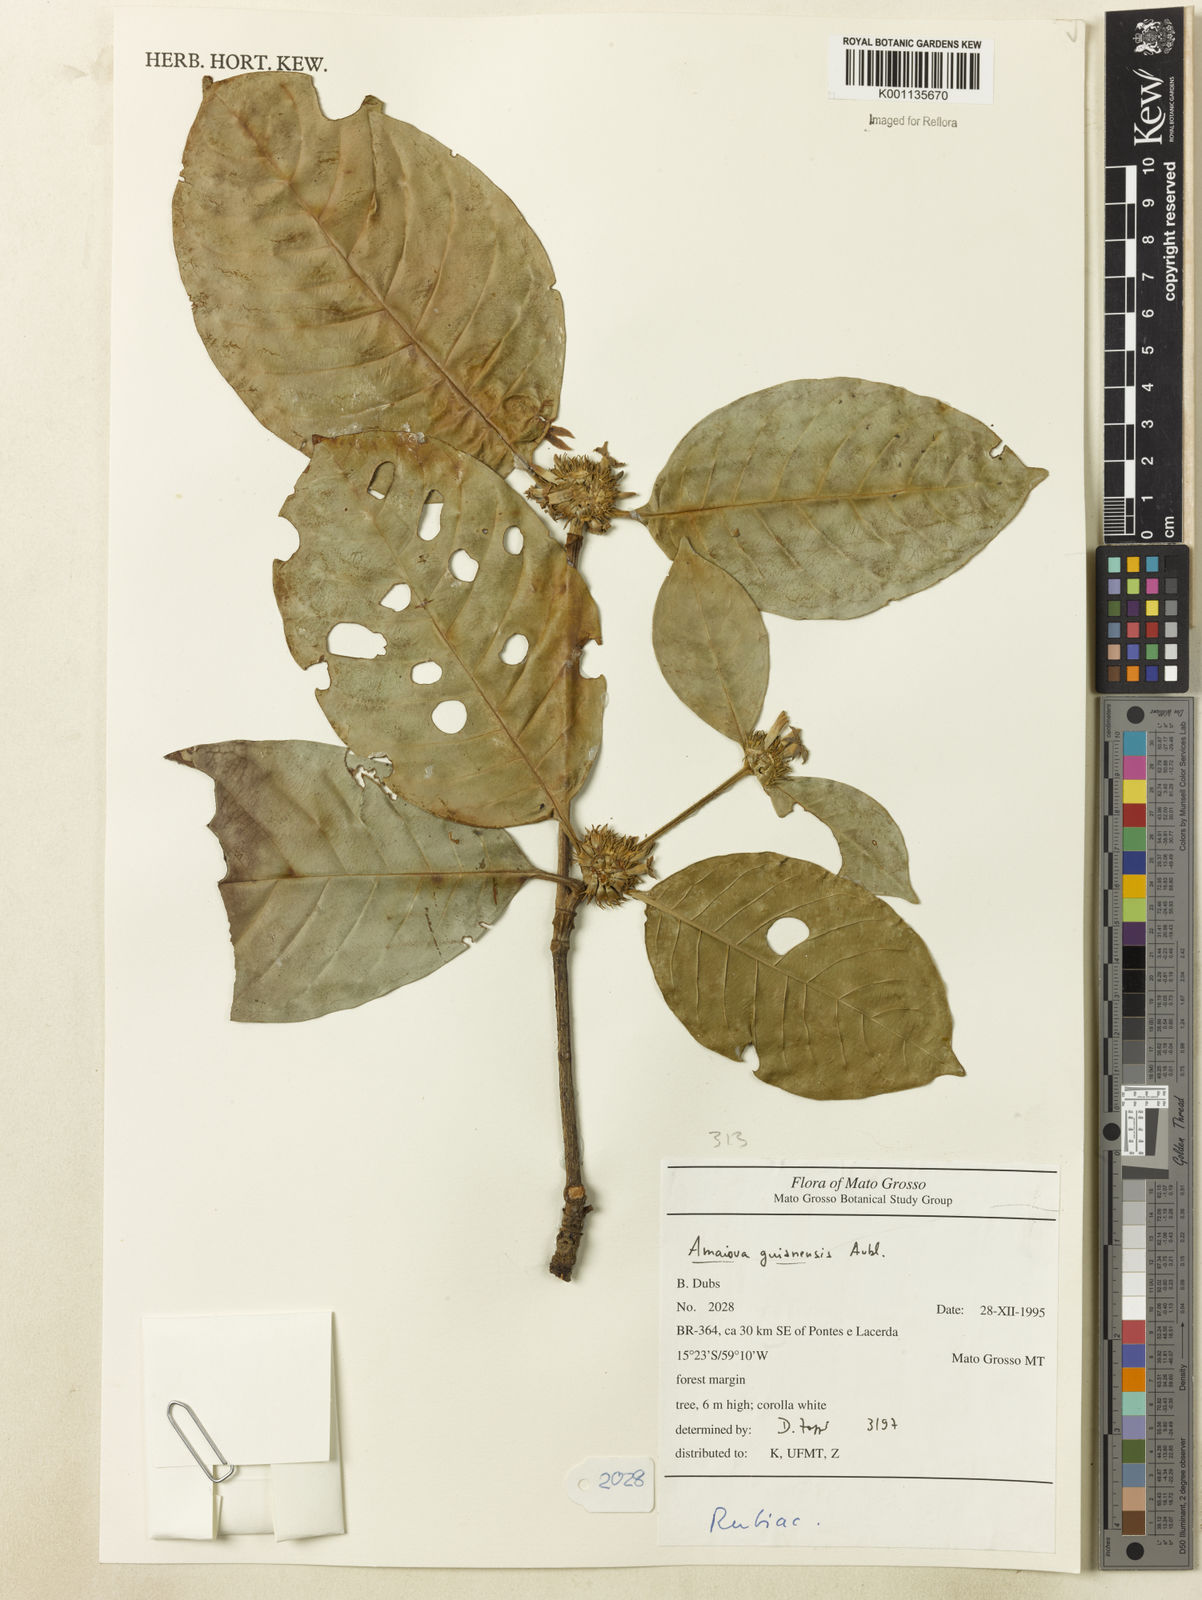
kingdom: Plantae
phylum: Tracheophyta
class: Magnoliopsida
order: Gentianales
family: Rubiaceae
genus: Amaioua
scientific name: Amaioua guianensis
